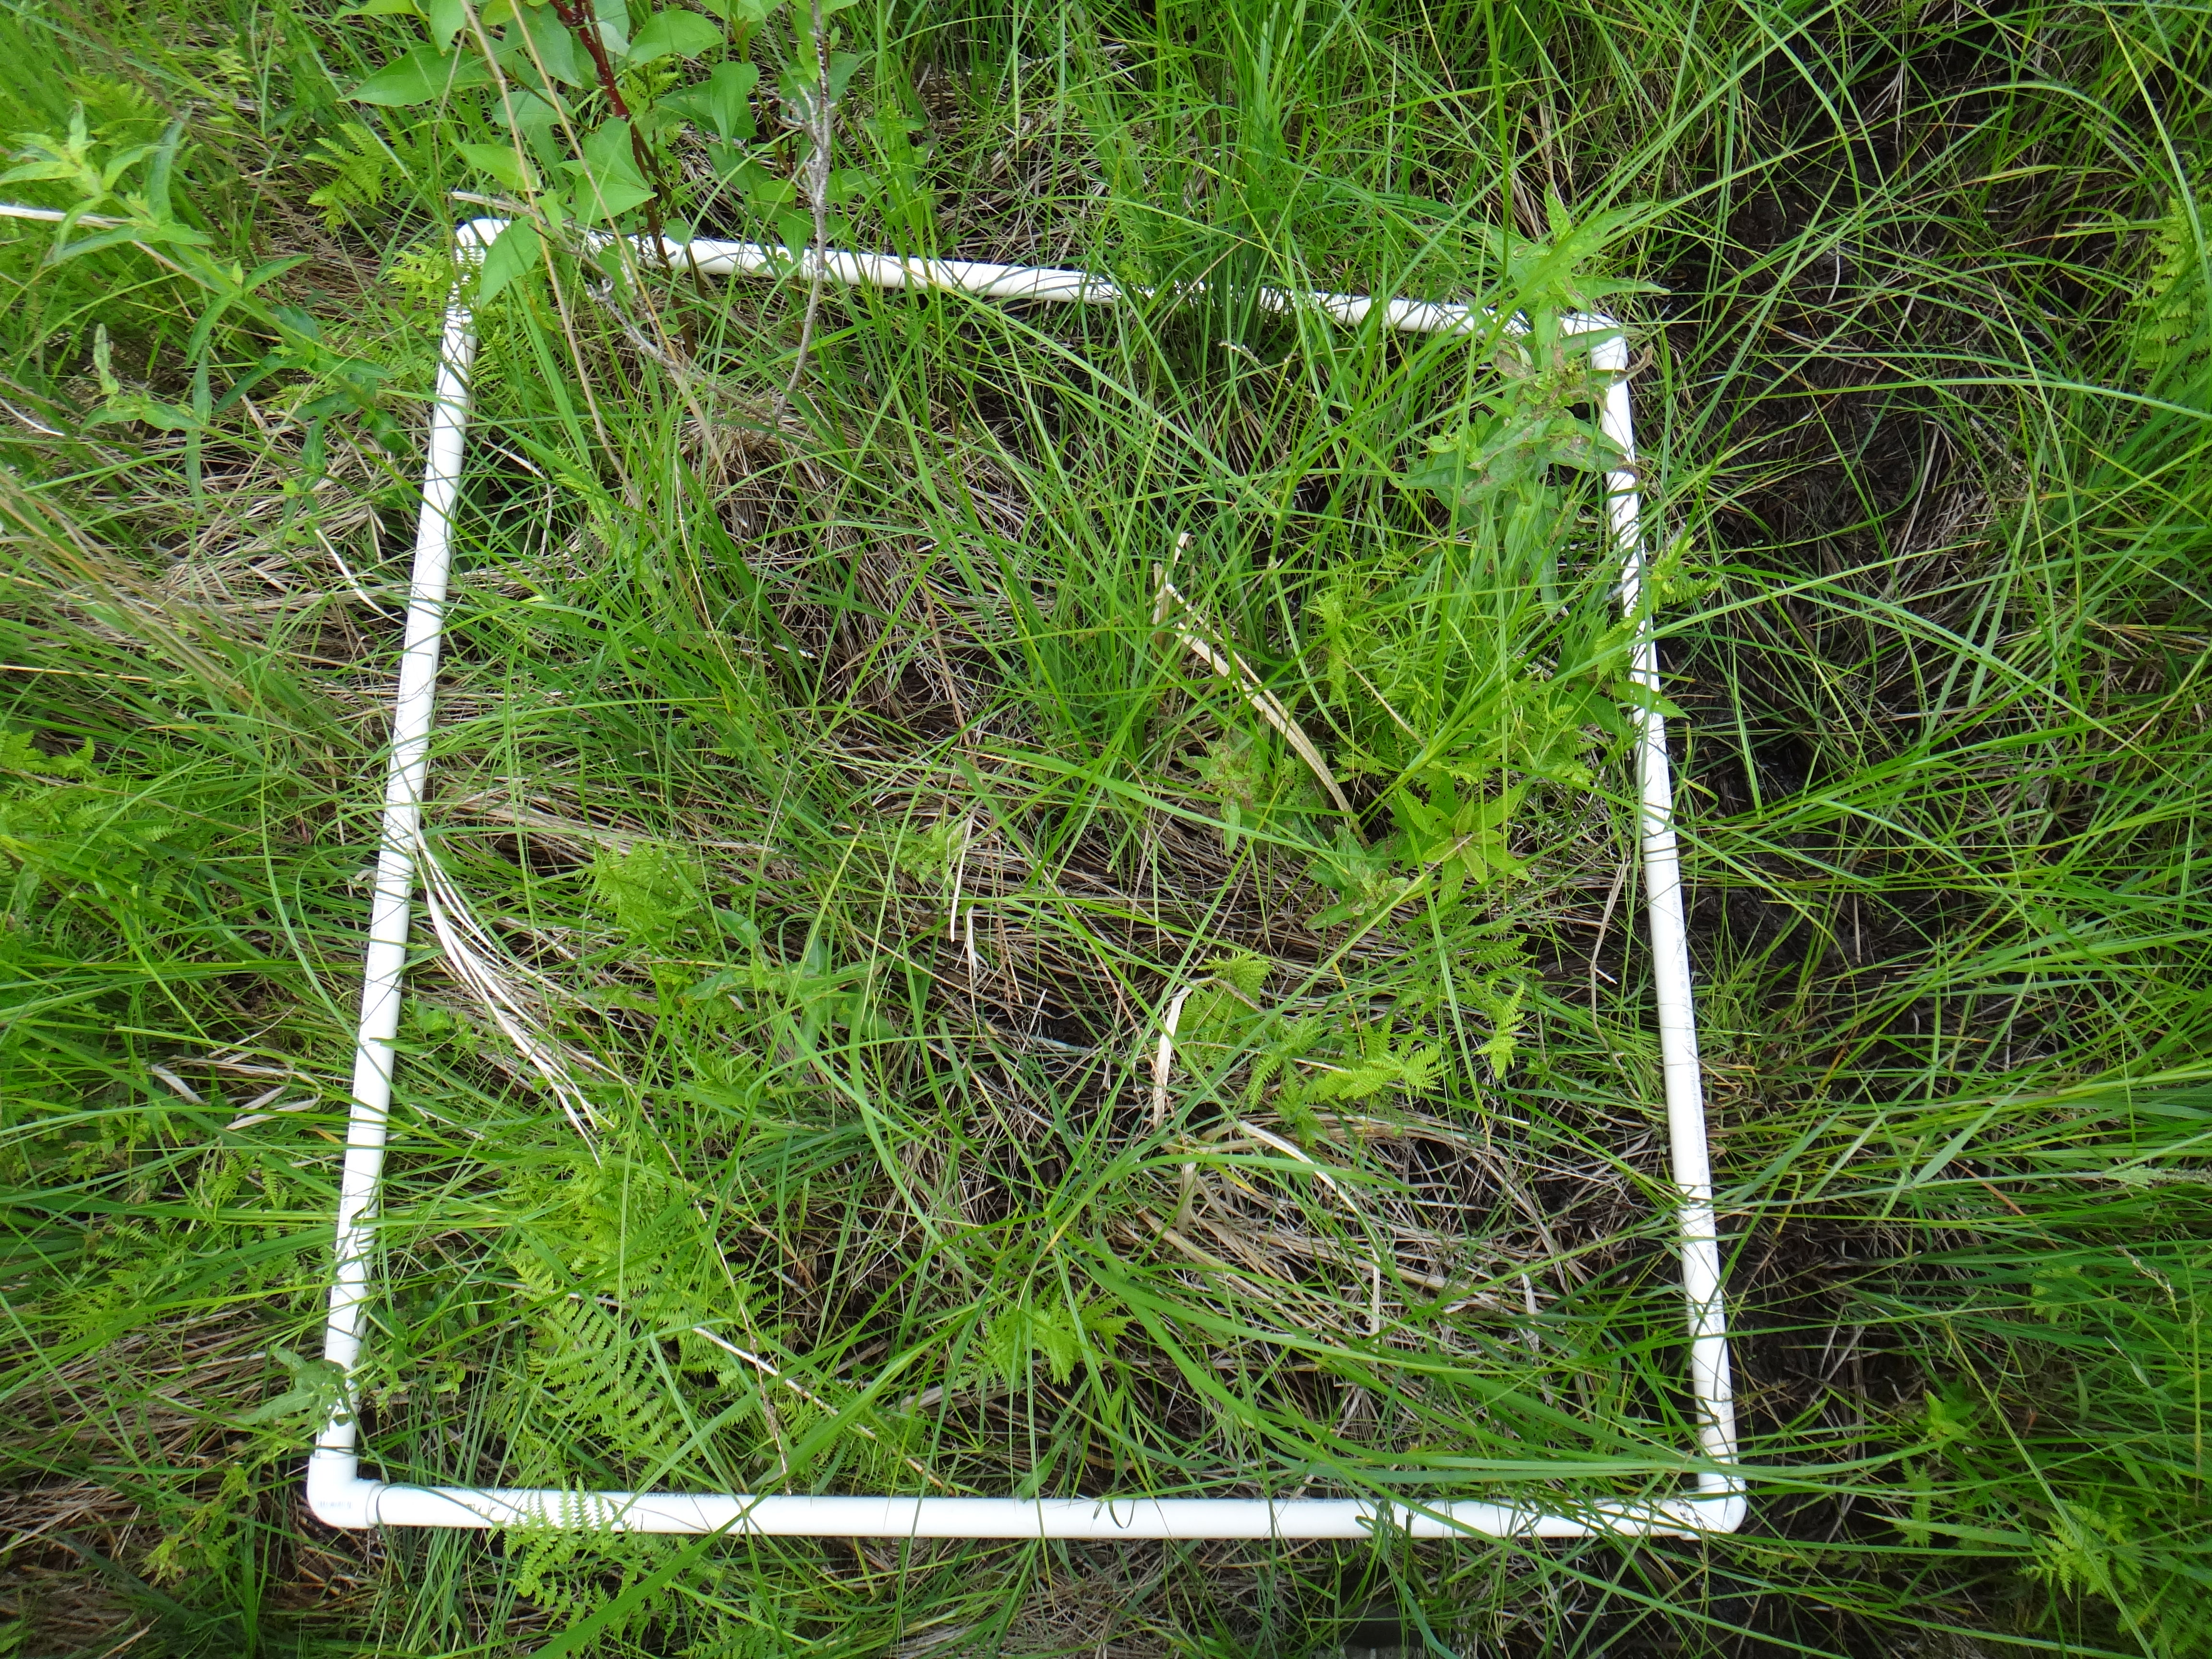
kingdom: Plantae
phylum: Tracheophyta
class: Magnoliopsida
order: Asterales
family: Asteraceae
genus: Doellingeria
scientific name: Doellingeria umbellata
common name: Flat-top white aster
